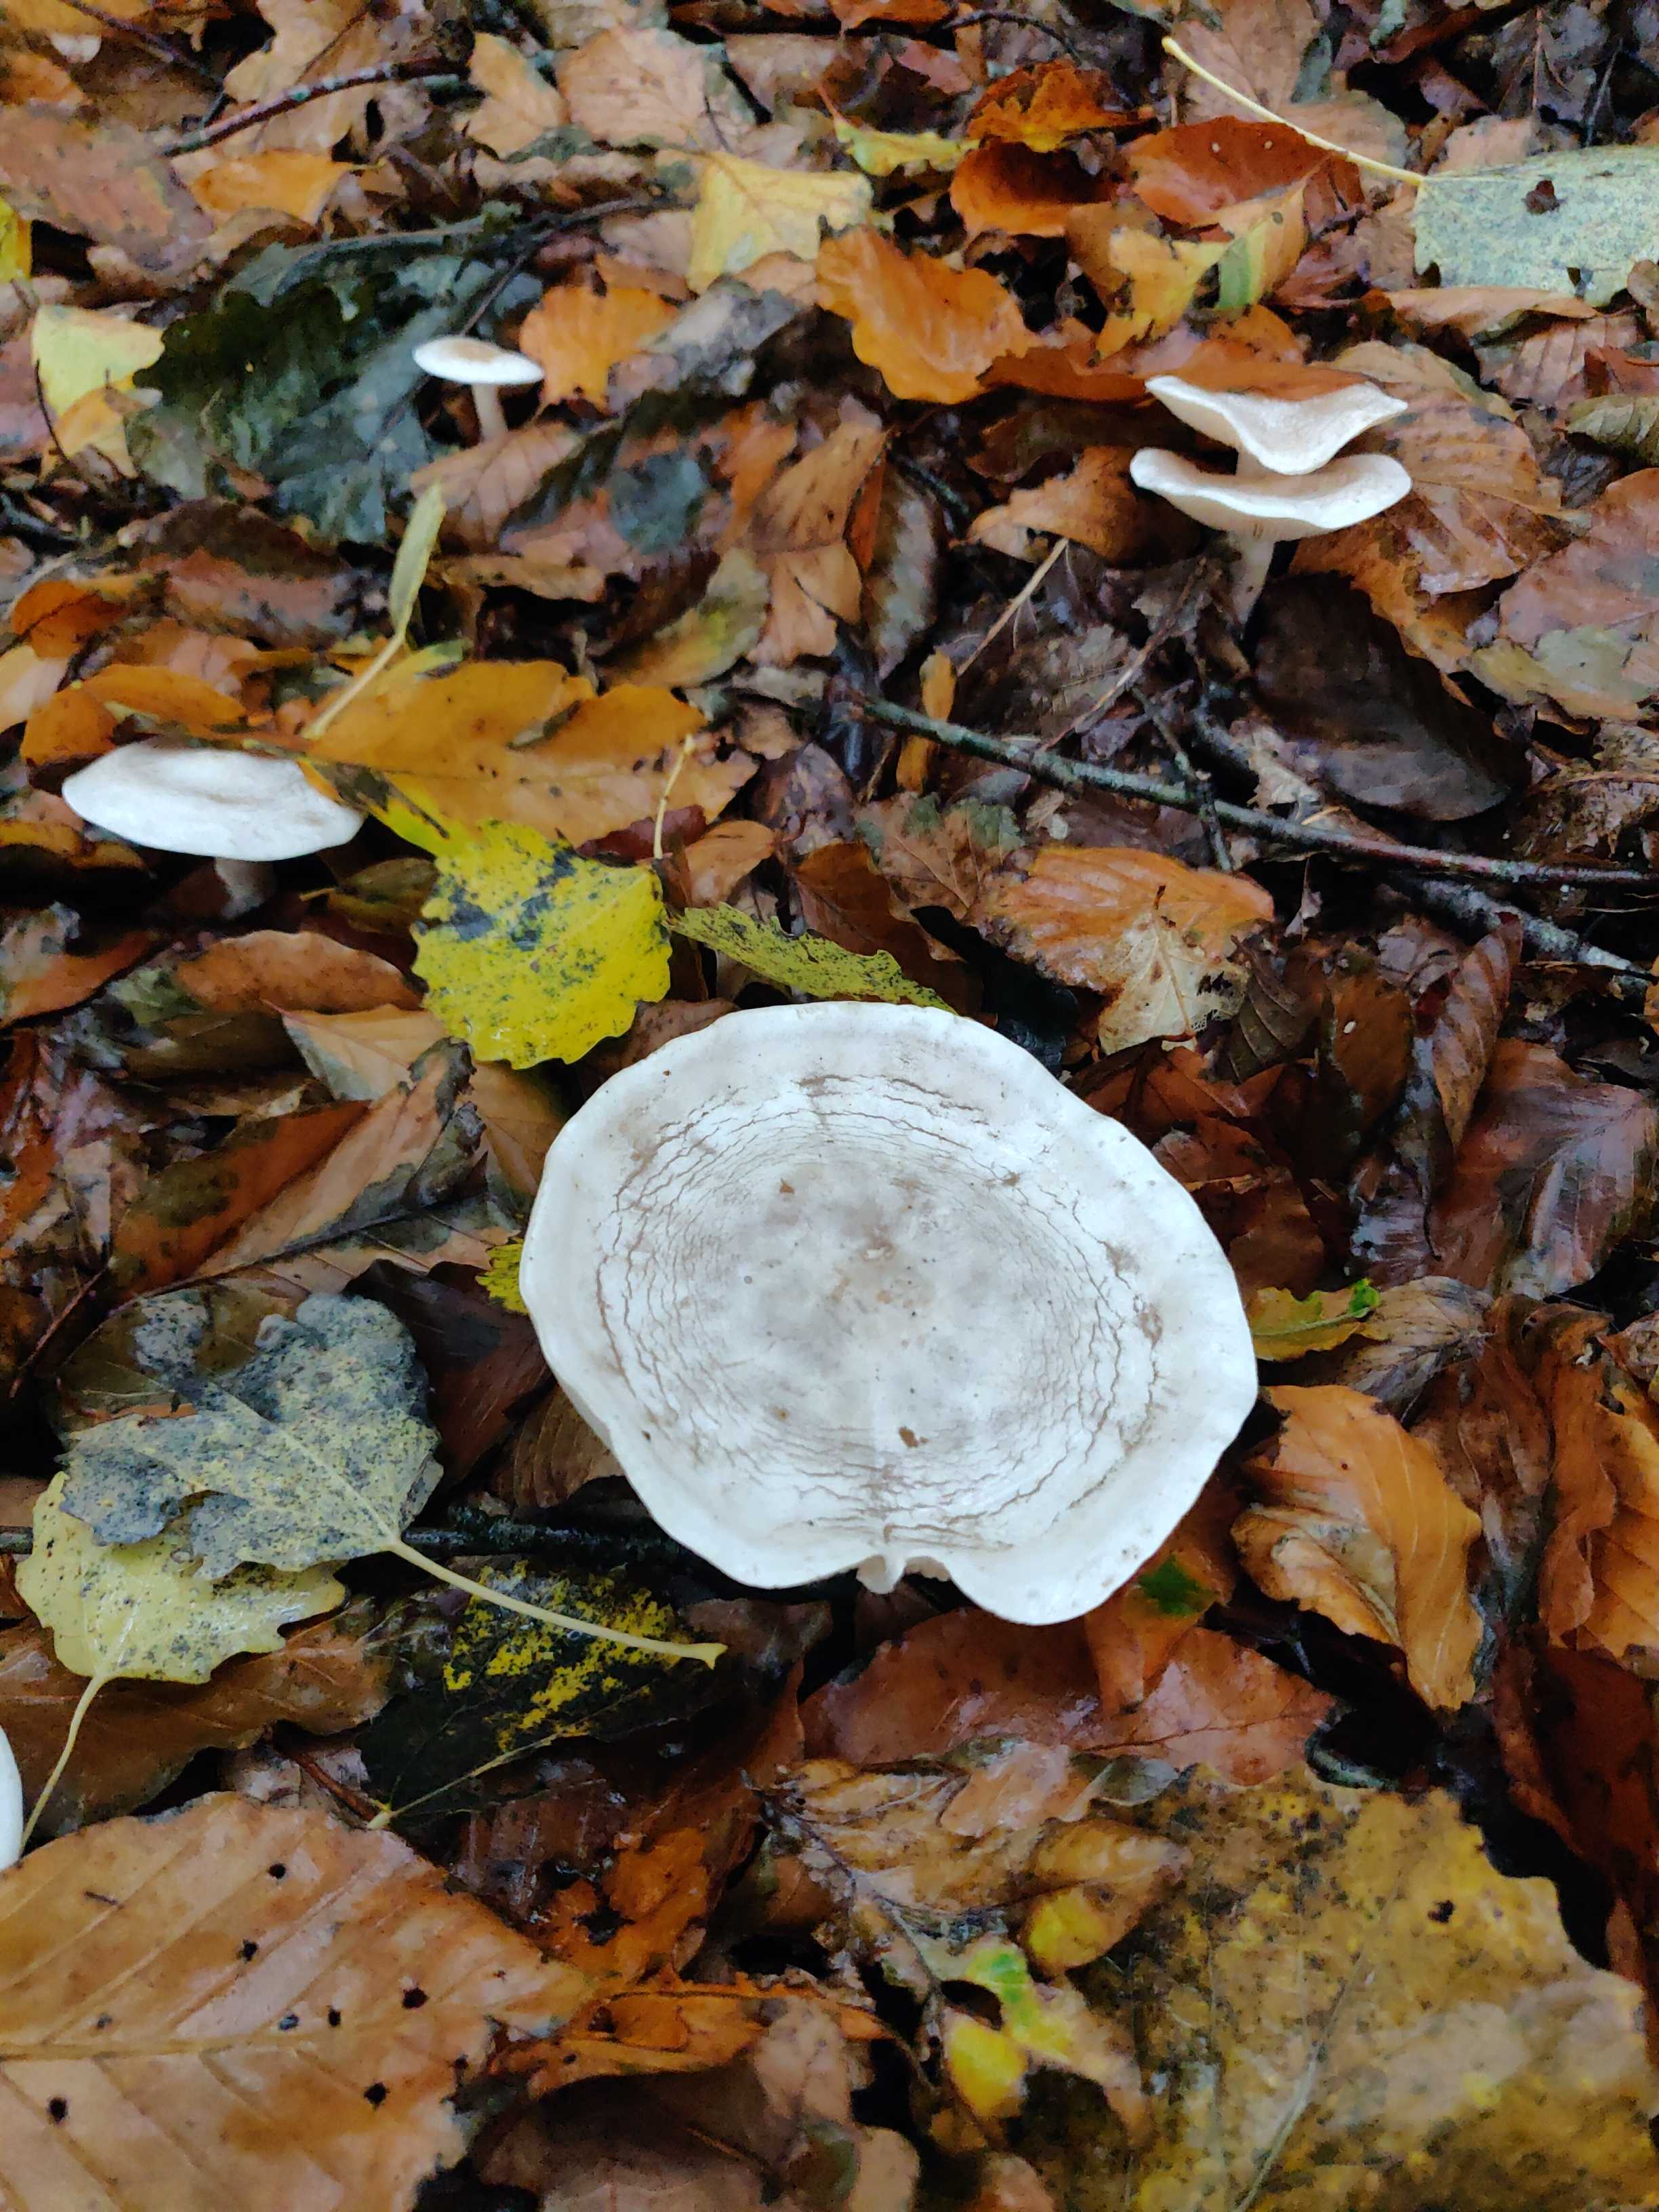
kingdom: Fungi
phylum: Basidiomycota
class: Agaricomycetes
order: Agaricales
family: Tricholomataceae
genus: Clitocybe
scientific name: Clitocybe phyllophila
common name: løv-tragthat
